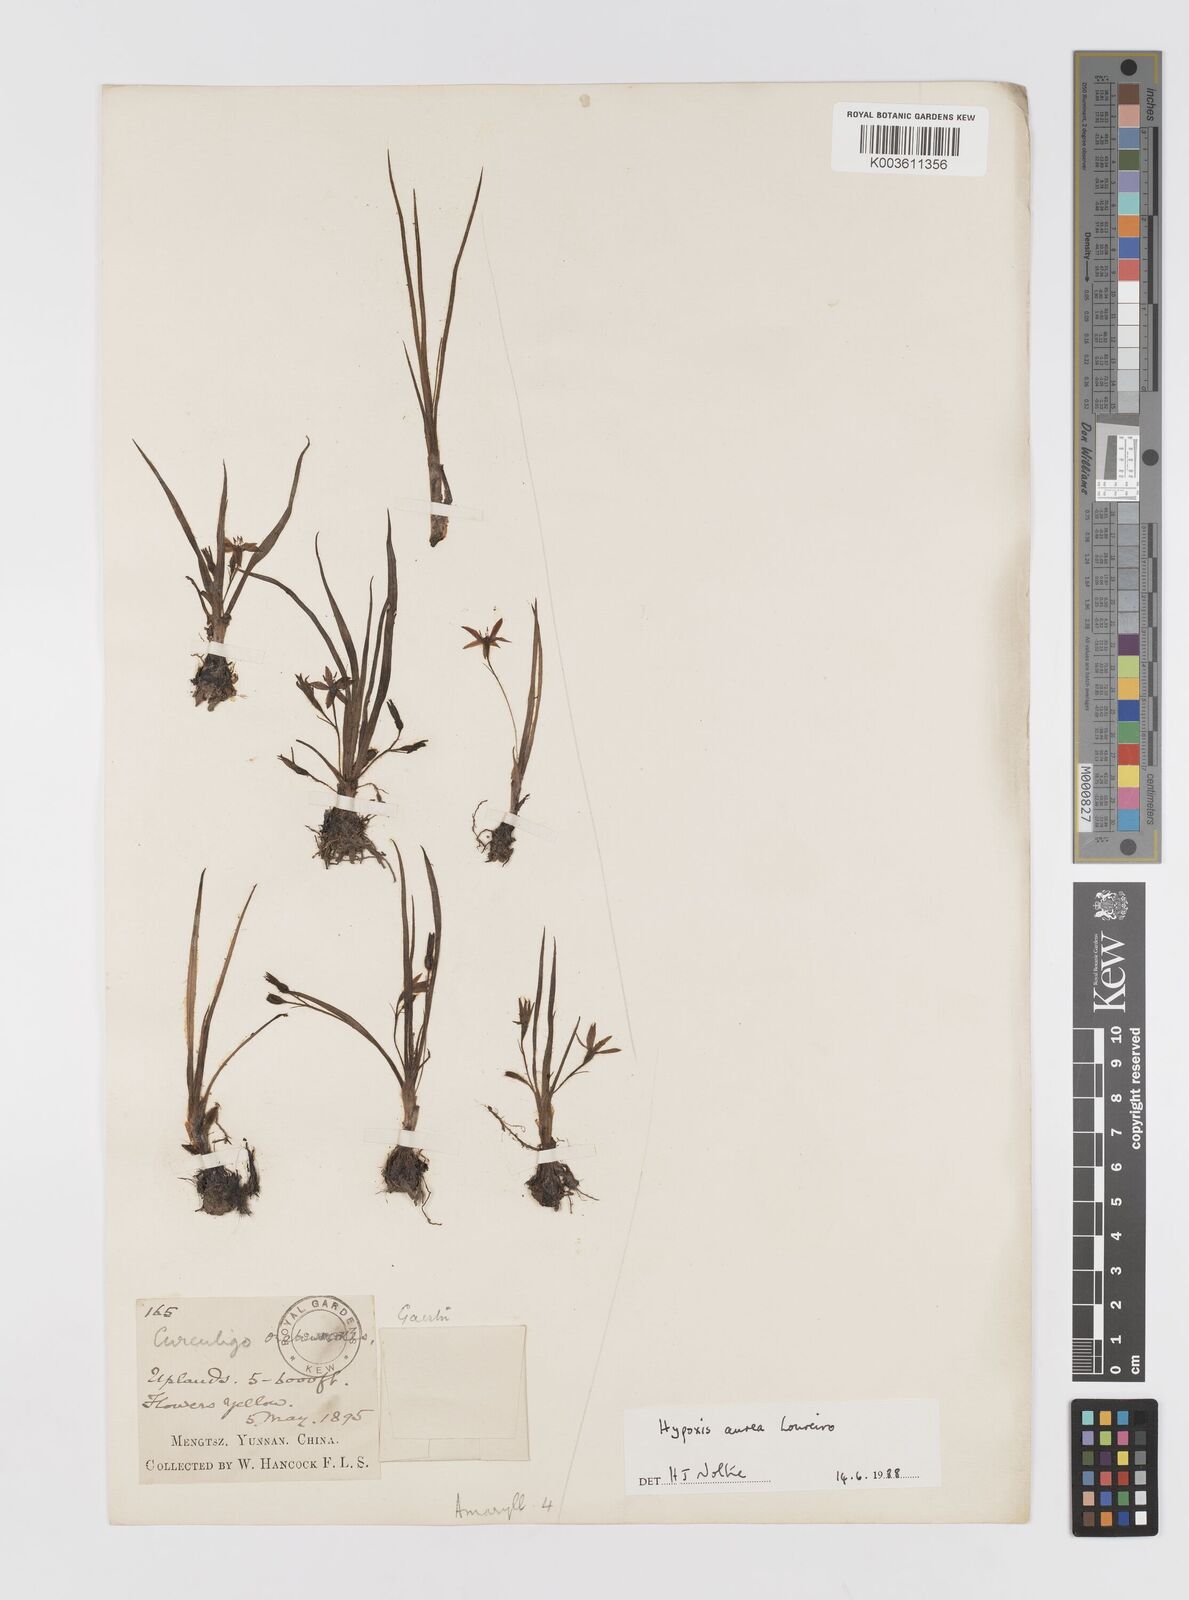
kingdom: Plantae
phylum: Tracheophyta
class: Liliopsida
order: Asparagales
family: Hypoxidaceae
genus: Hypoxis
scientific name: Hypoxis aurea
